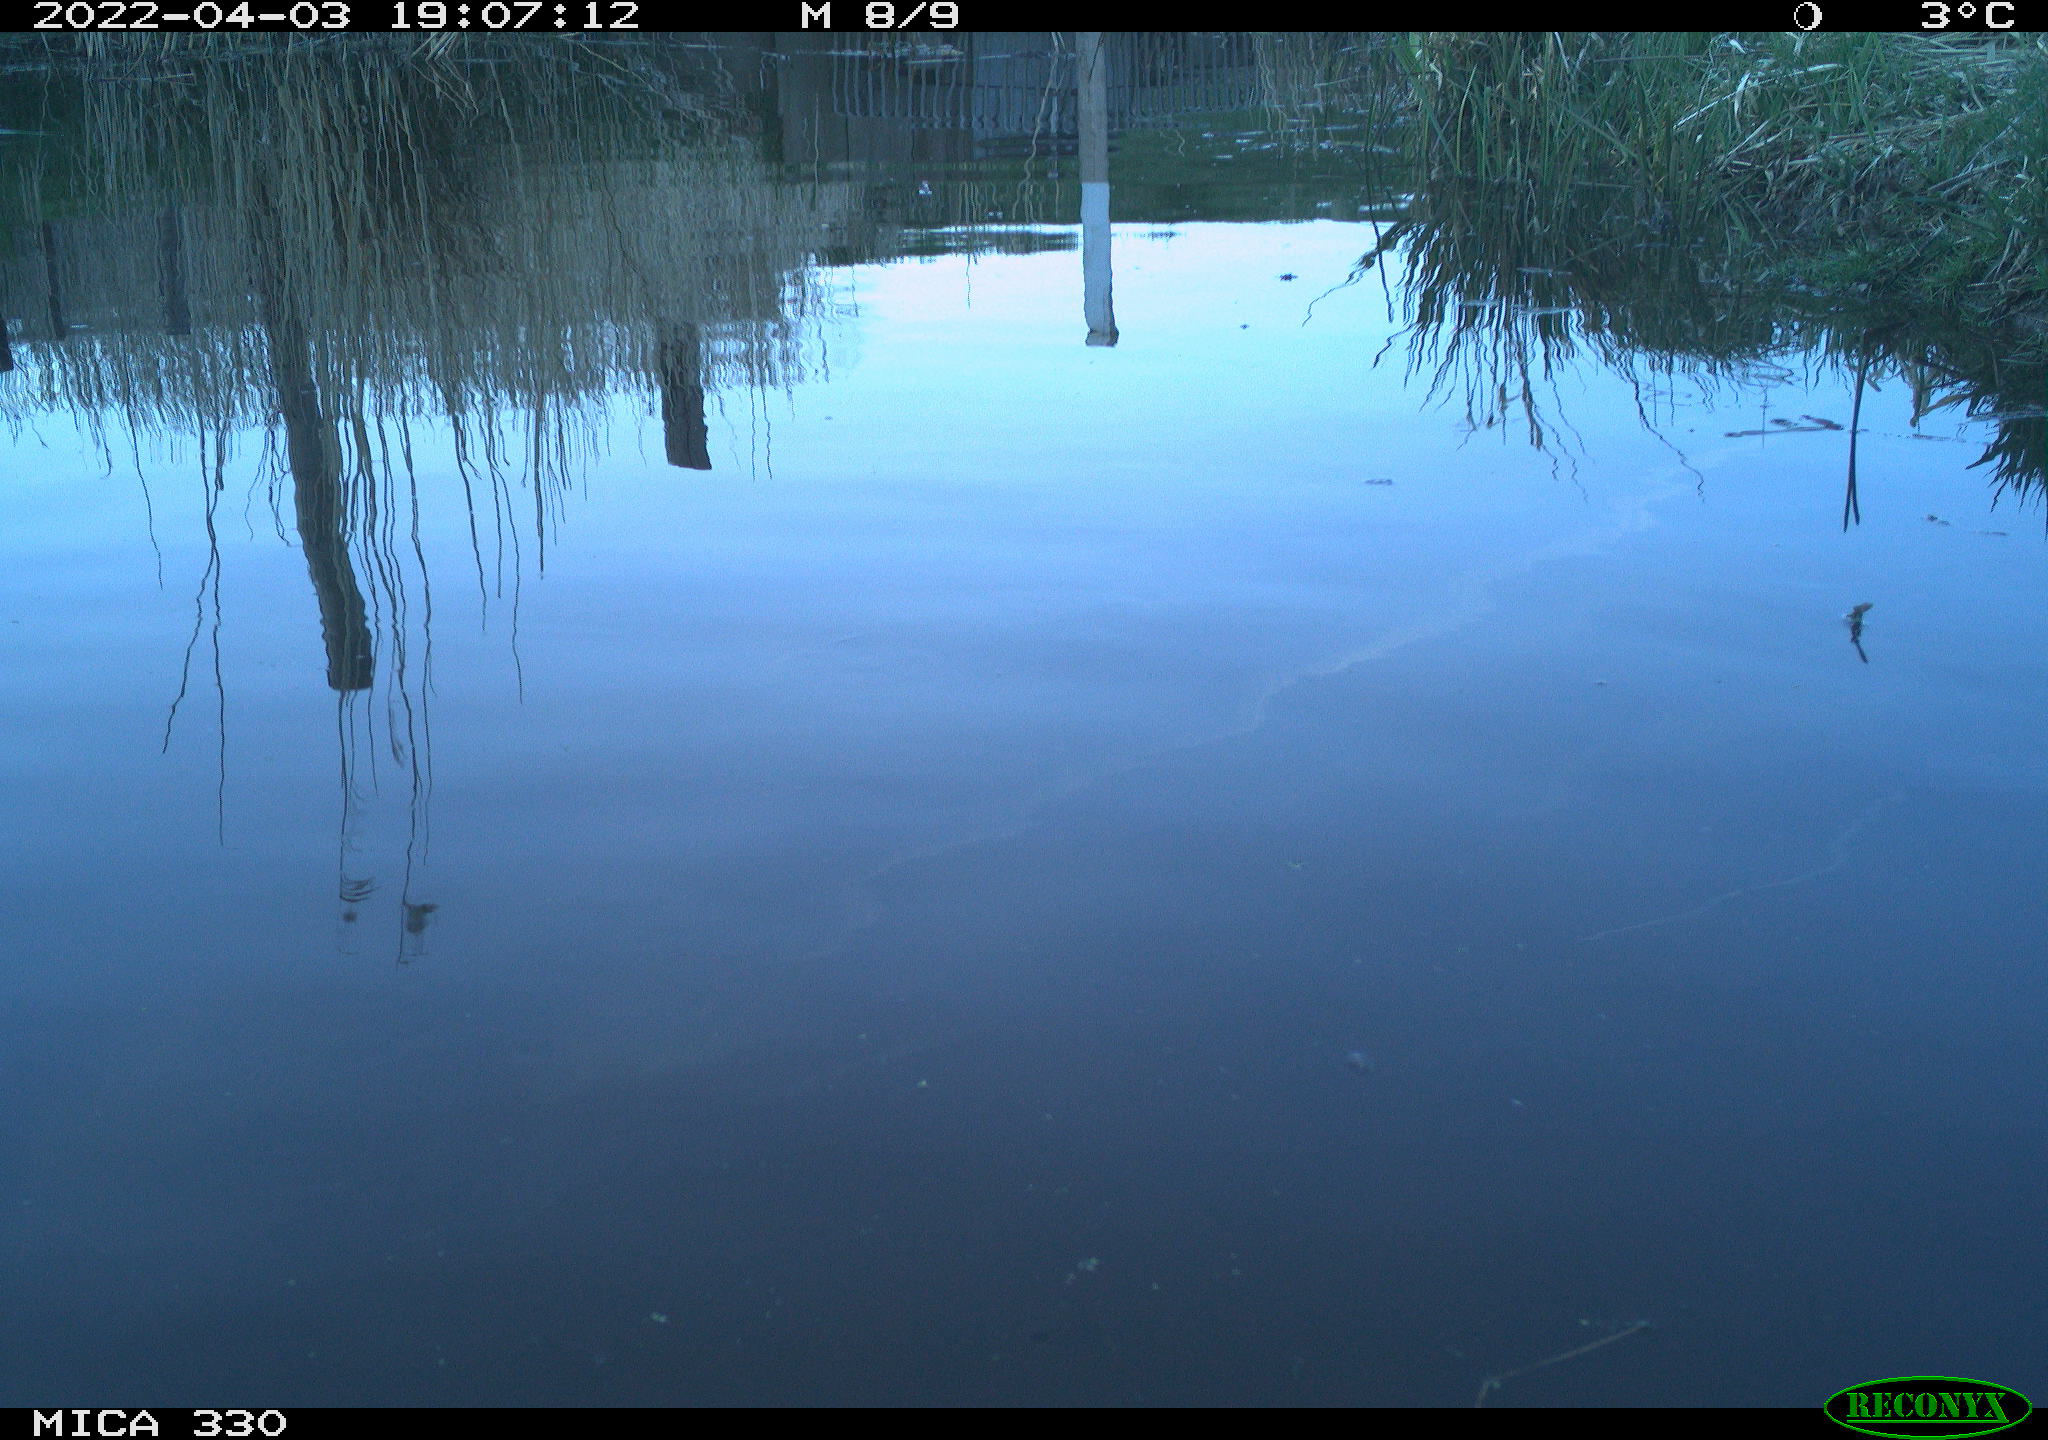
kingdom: Animalia
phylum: Chordata
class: Aves
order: Anseriformes
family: Anatidae
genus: Anas
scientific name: Anas platyrhynchos
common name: Mallard
